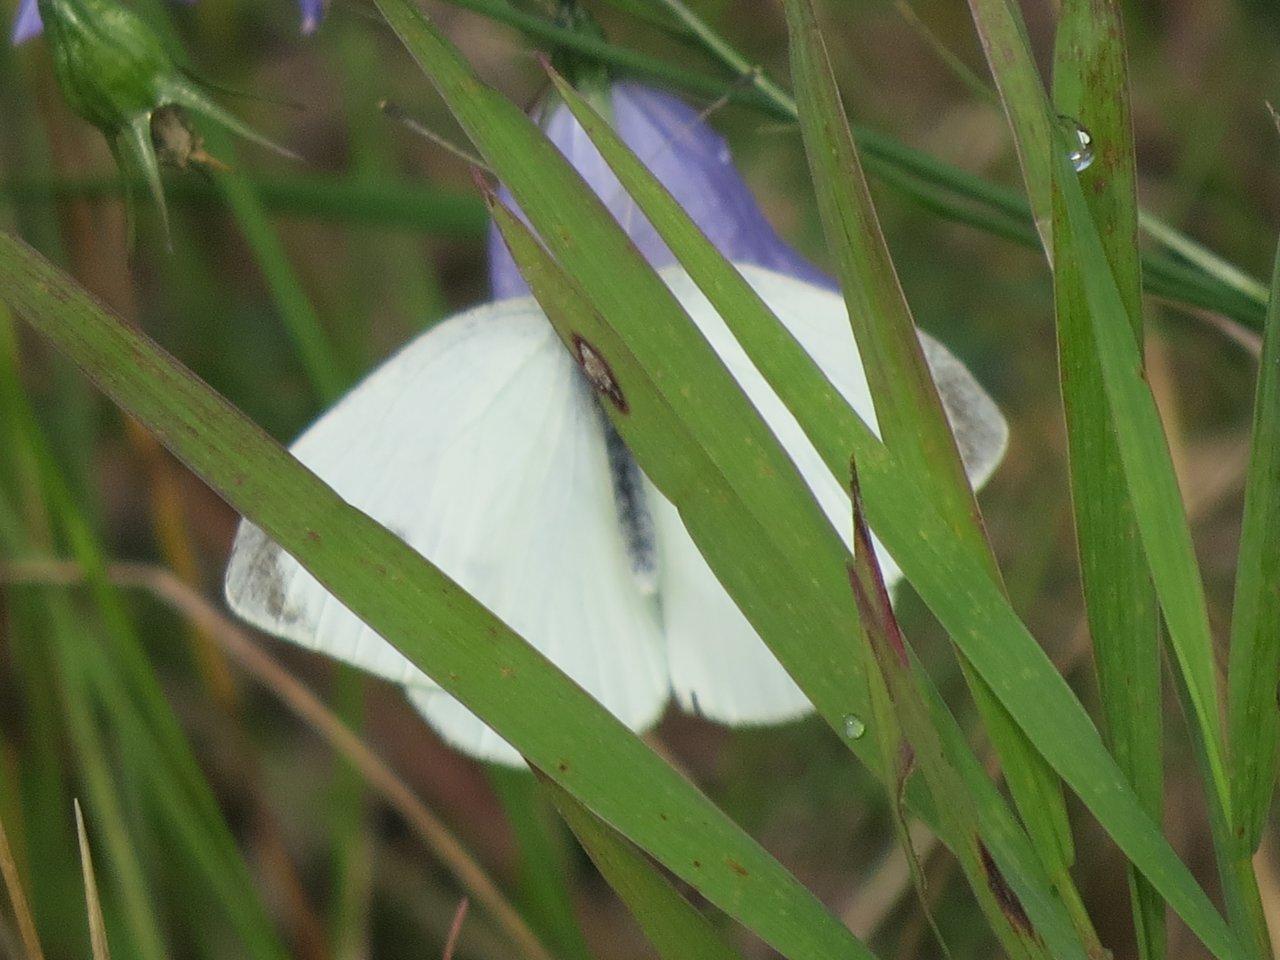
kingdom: Animalia
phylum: Arthropoda
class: Insecta
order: Lepidoptera
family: Pieridae
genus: Pieris
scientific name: Pieris rapae
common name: Cabbage White
